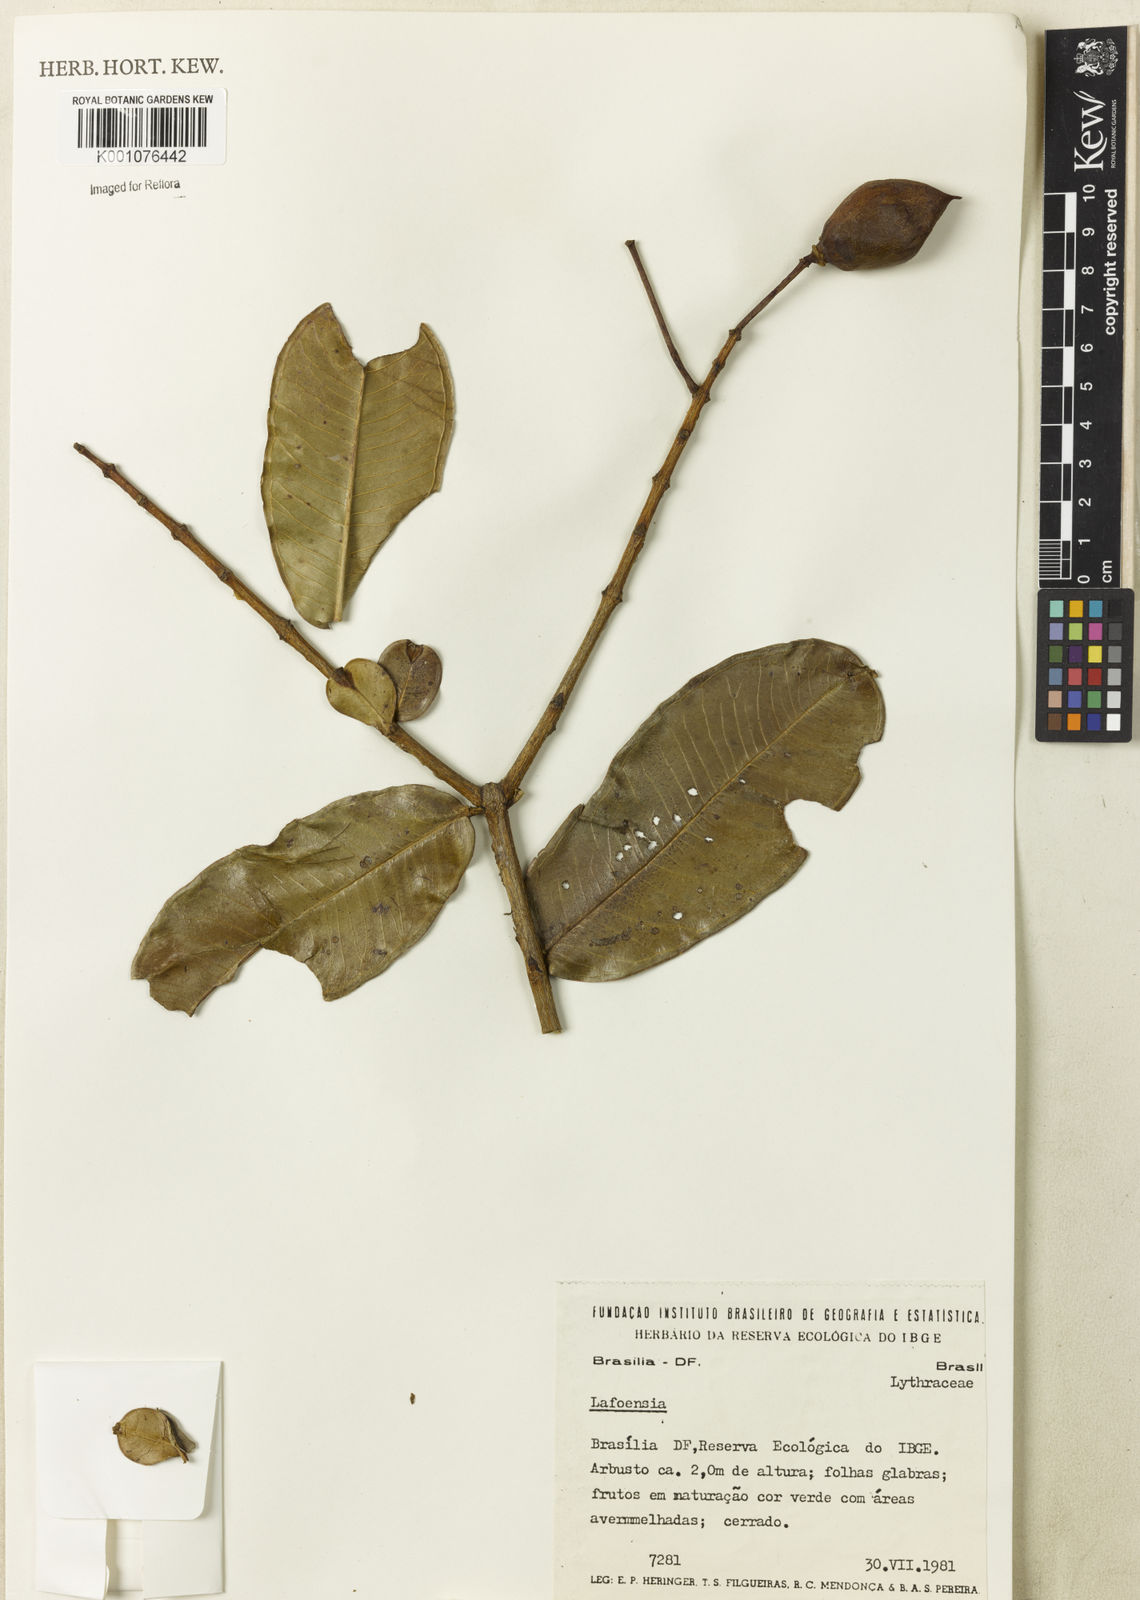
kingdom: Plantae
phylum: Tracheophyta
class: Magnoliopsida
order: Myrtales
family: Lythraceae
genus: Lafoensia
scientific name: Lafoensia
